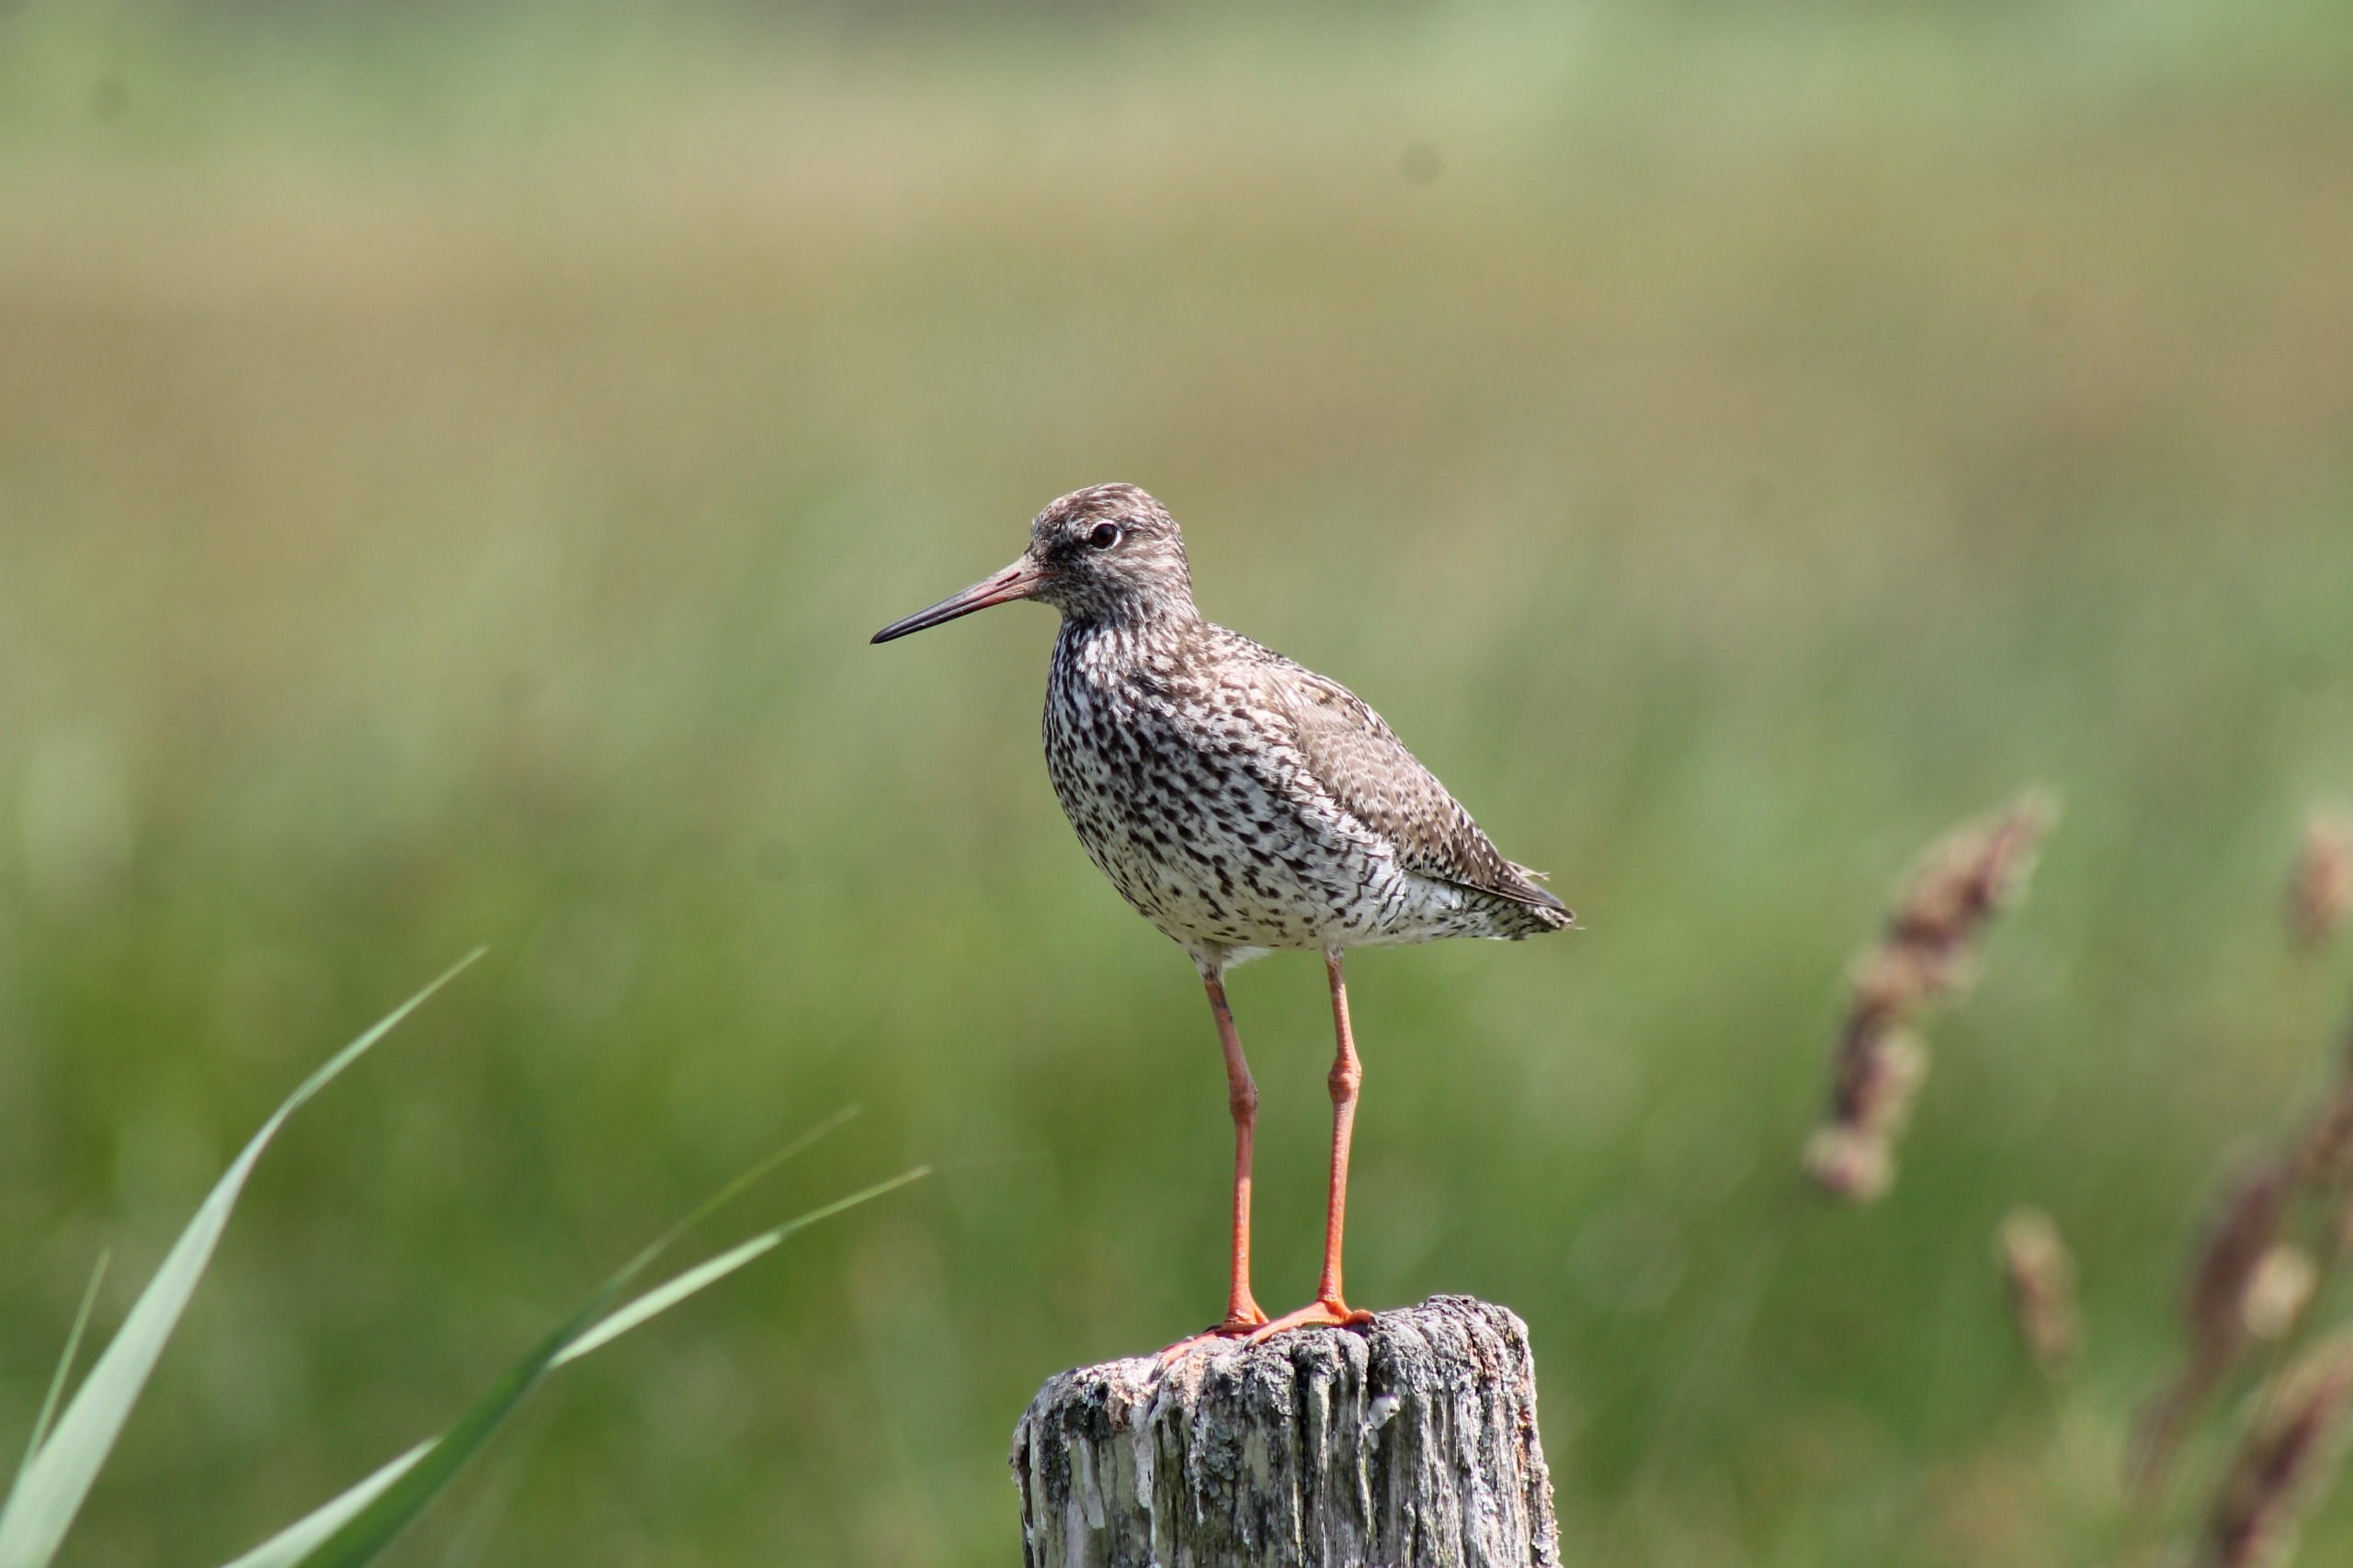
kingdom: Animalia
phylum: Chordata
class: Aves
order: Charadriiformes
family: Scolopacidae
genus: Tringa
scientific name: Tringa totanus
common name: Rødben
